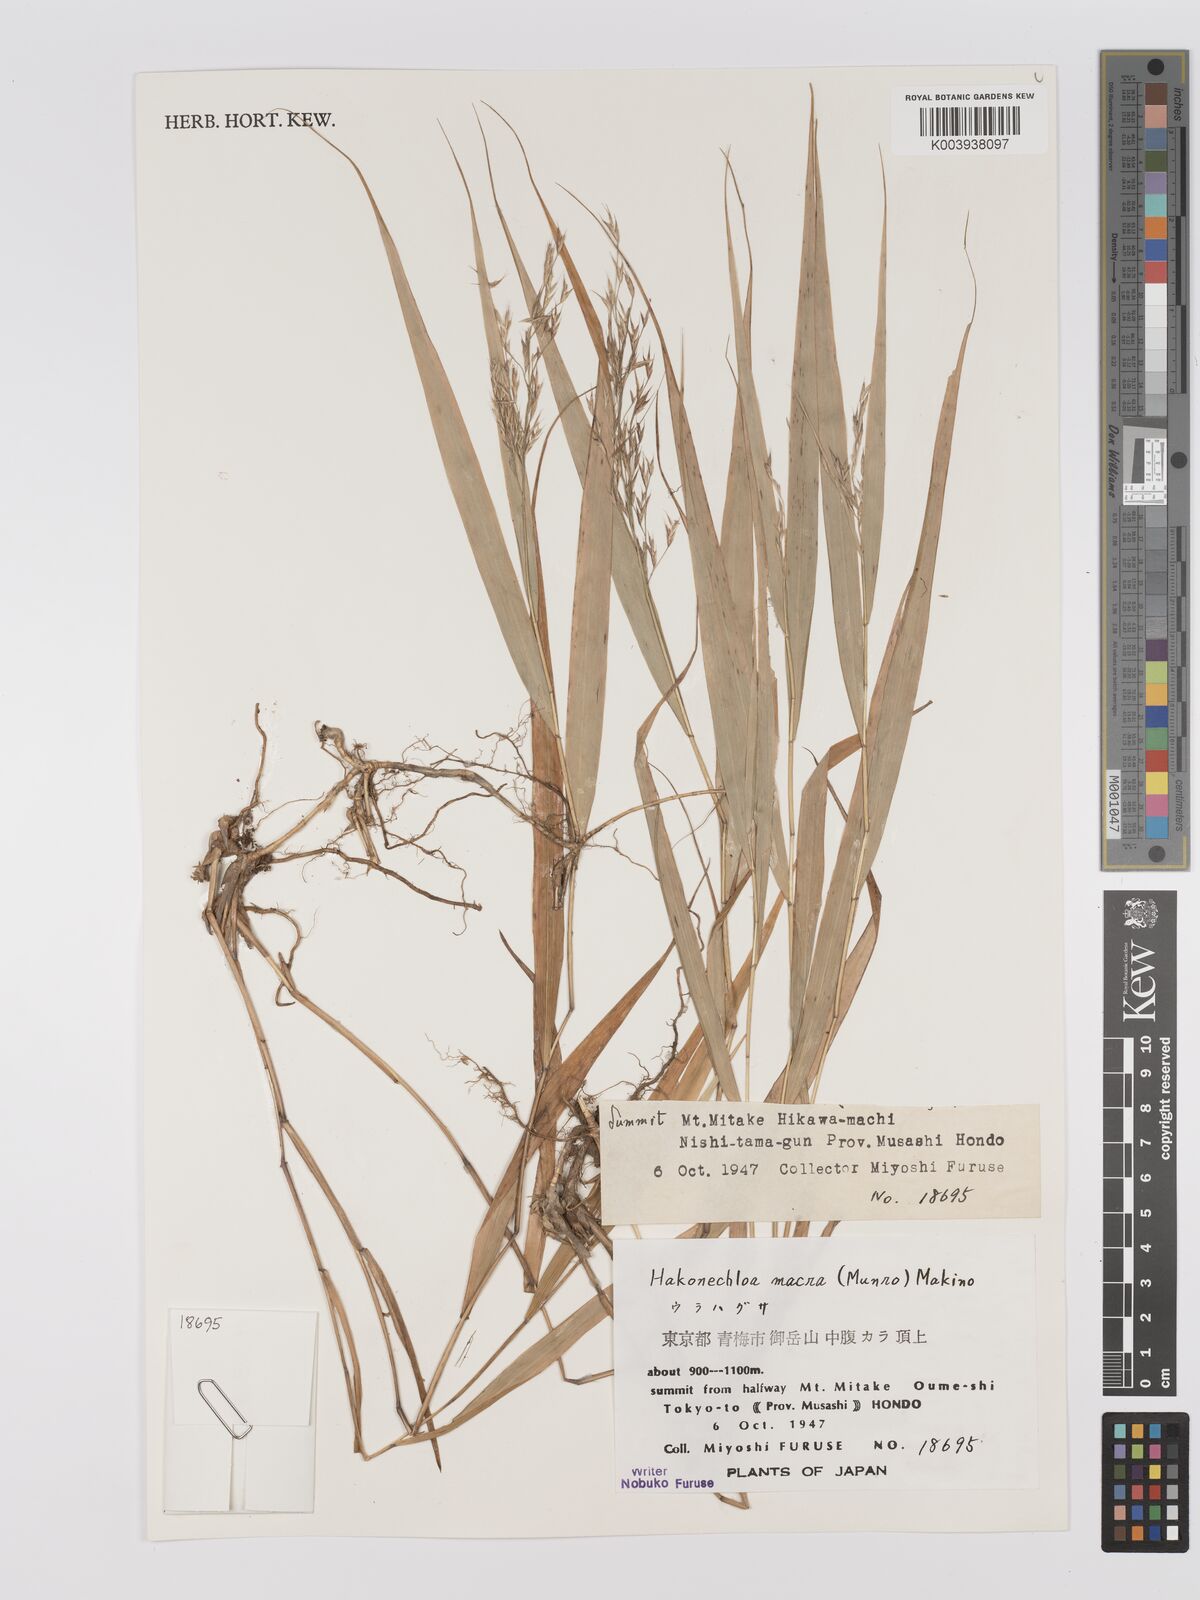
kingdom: Plantae
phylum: Tracheophyta
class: Liliopsida
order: Poales
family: Poaceae
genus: Hakonechloa
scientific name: Hakonechloa macra
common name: Hakone grass
